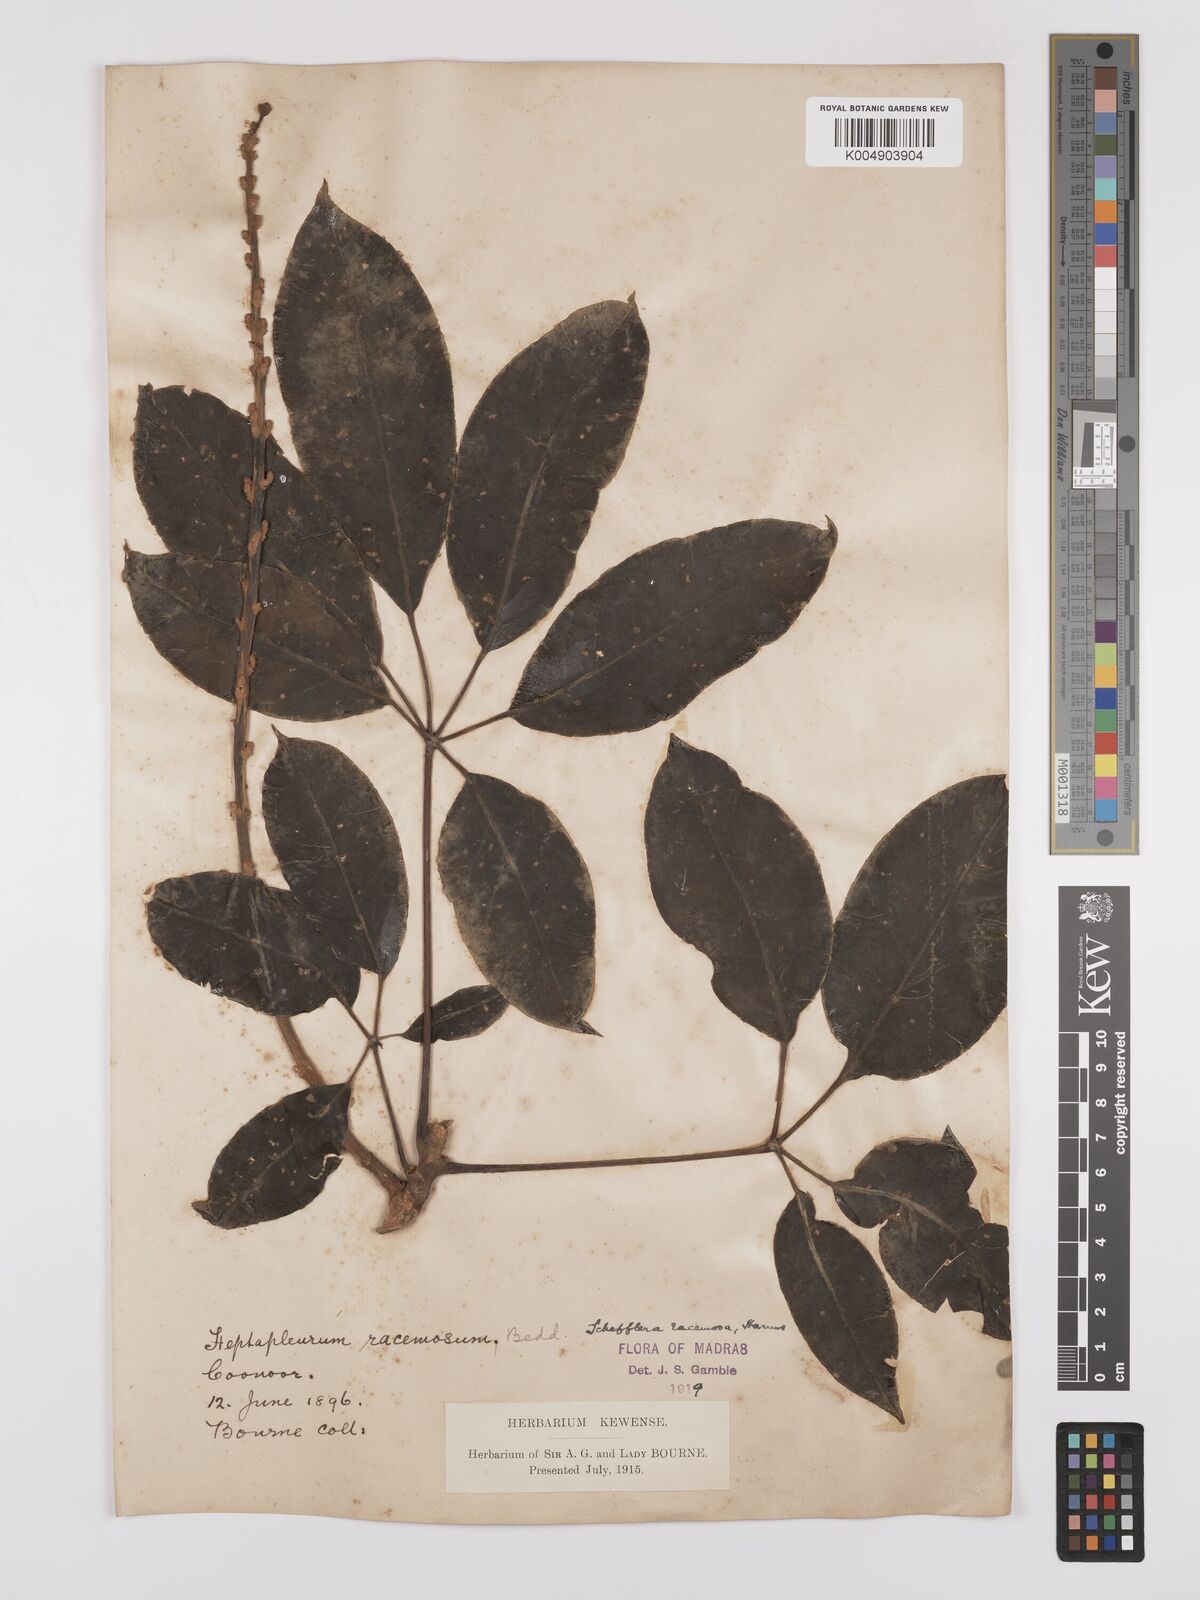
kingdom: Plantae
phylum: Tracheophyta
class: Magnoliopsida
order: Apiales
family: Araliaceae
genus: Heptapleurum
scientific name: Heptapleurum racemosum
